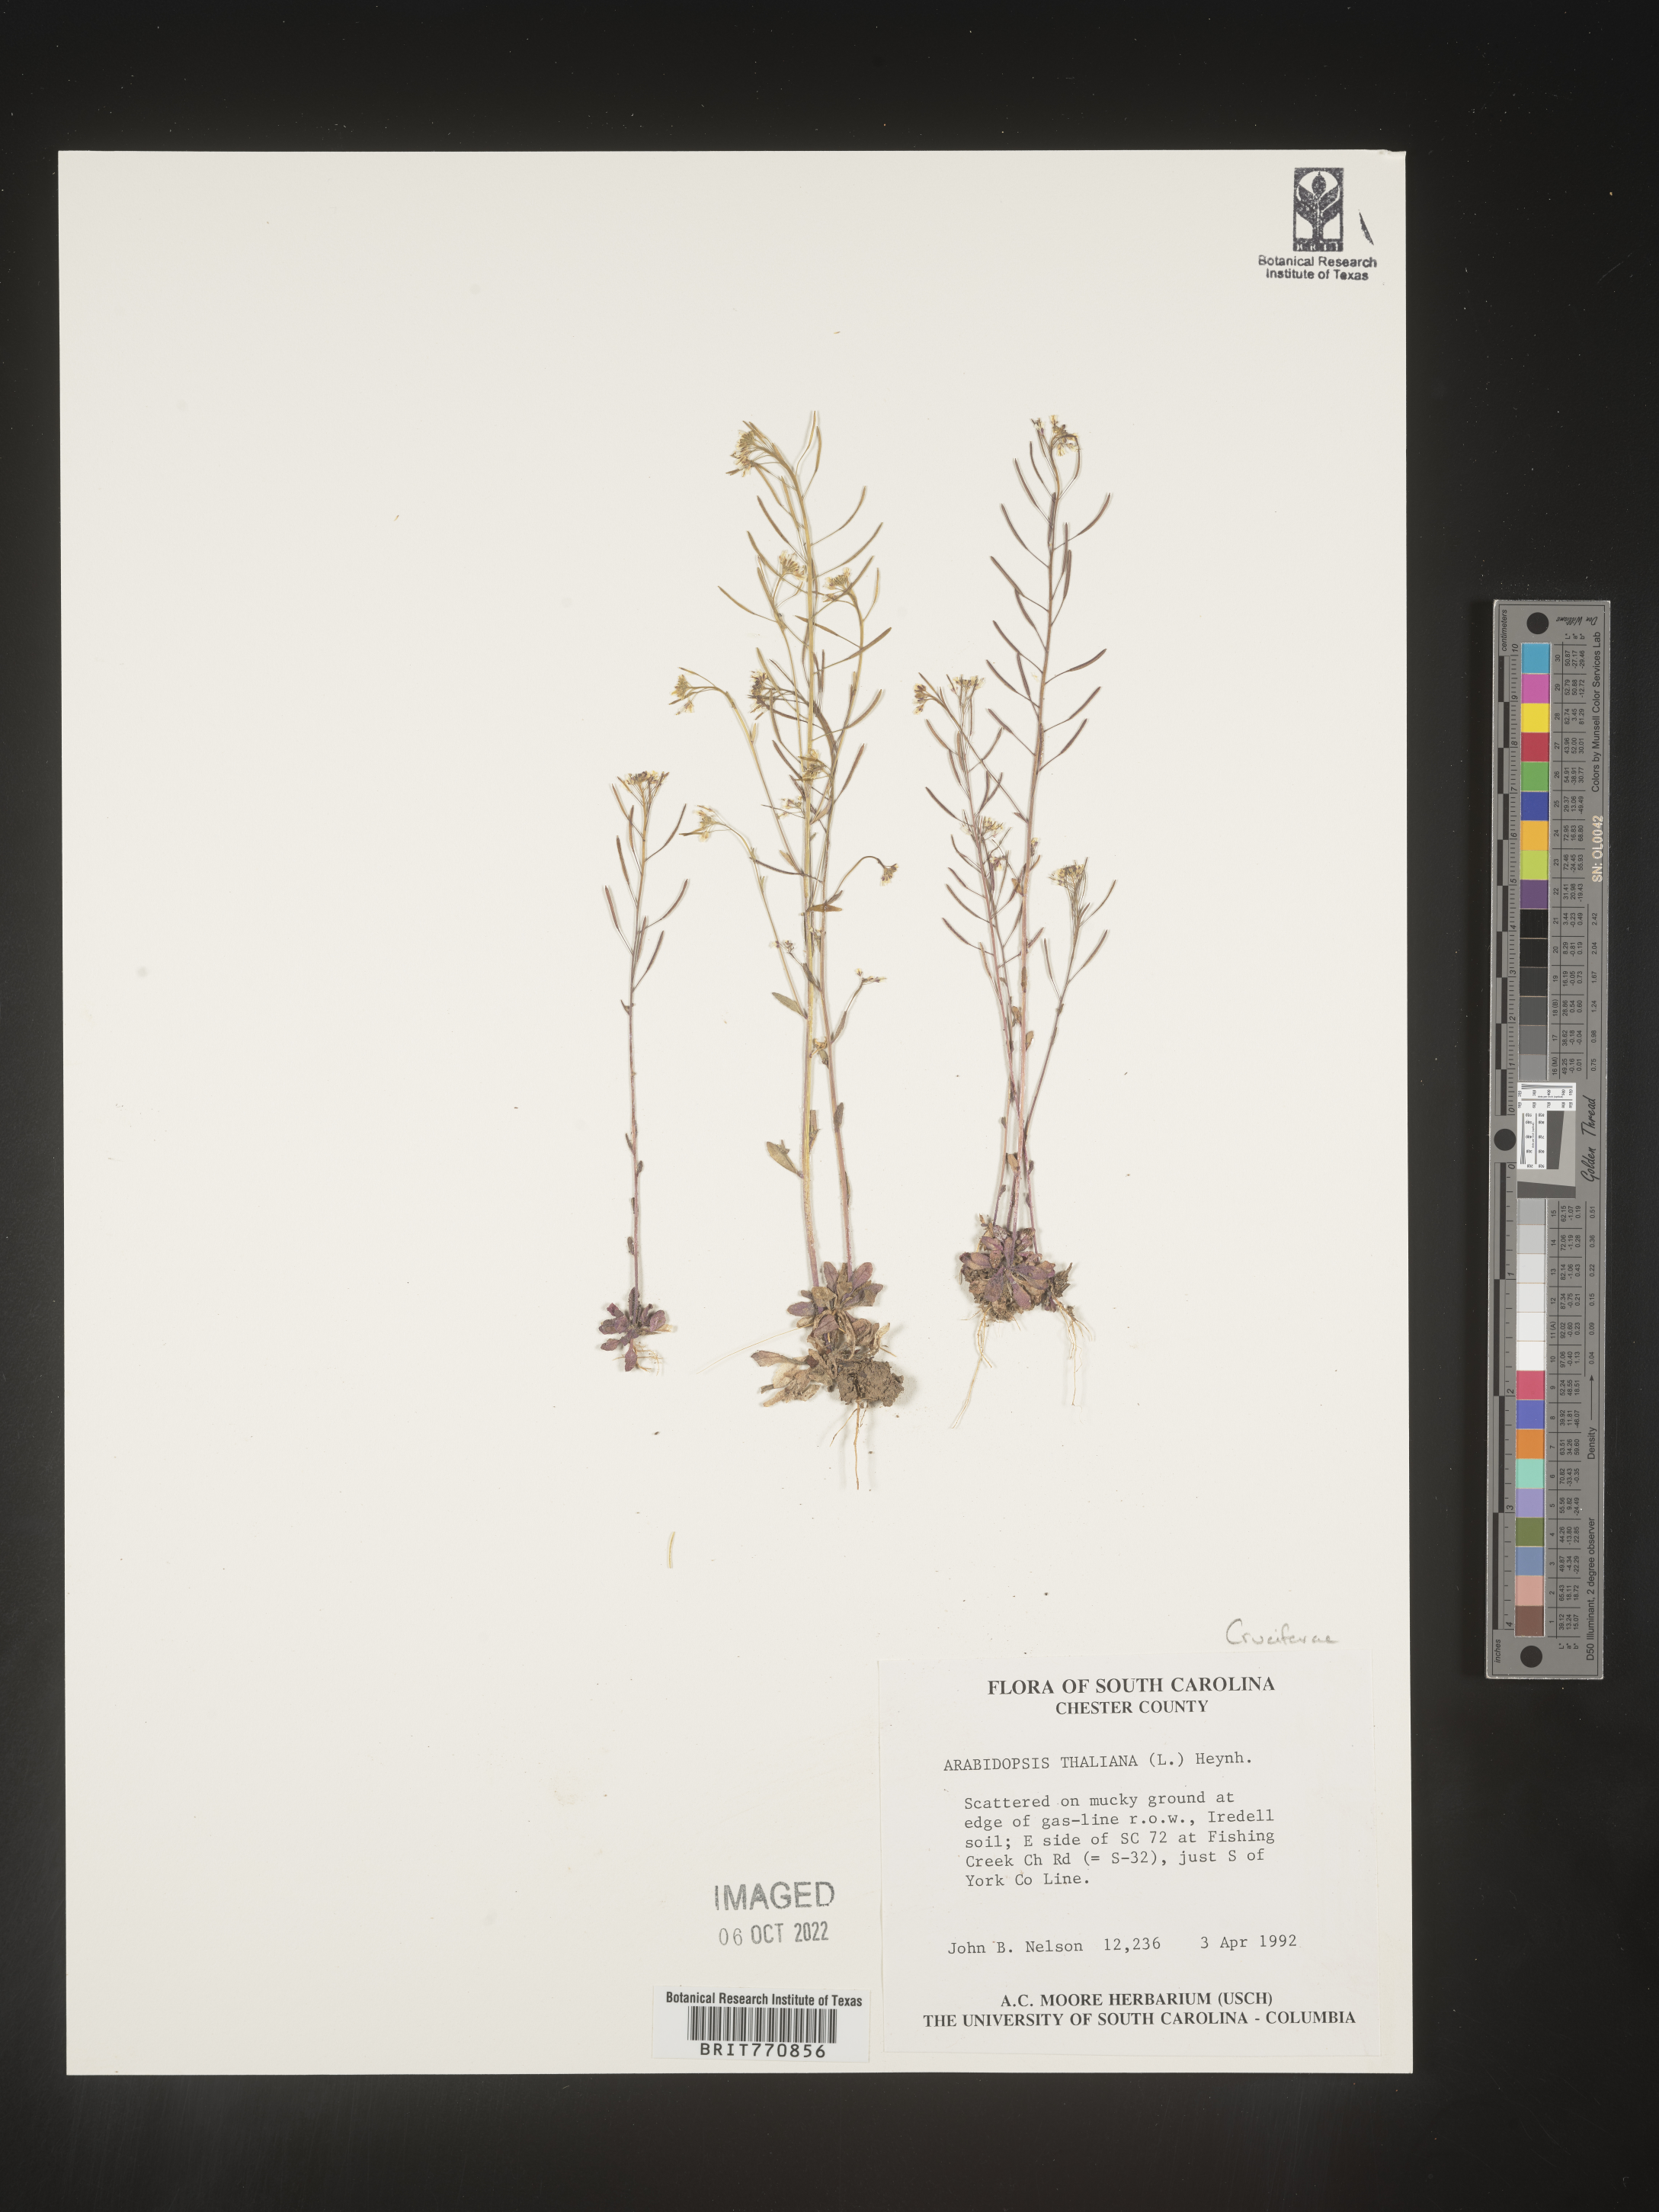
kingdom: Plantae
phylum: Tracheophyta
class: Magnoliopsida
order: Brassicales
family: Brassicaceae
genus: Arabidopsis
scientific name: Arabidopsis thaliana
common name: Thale cress
